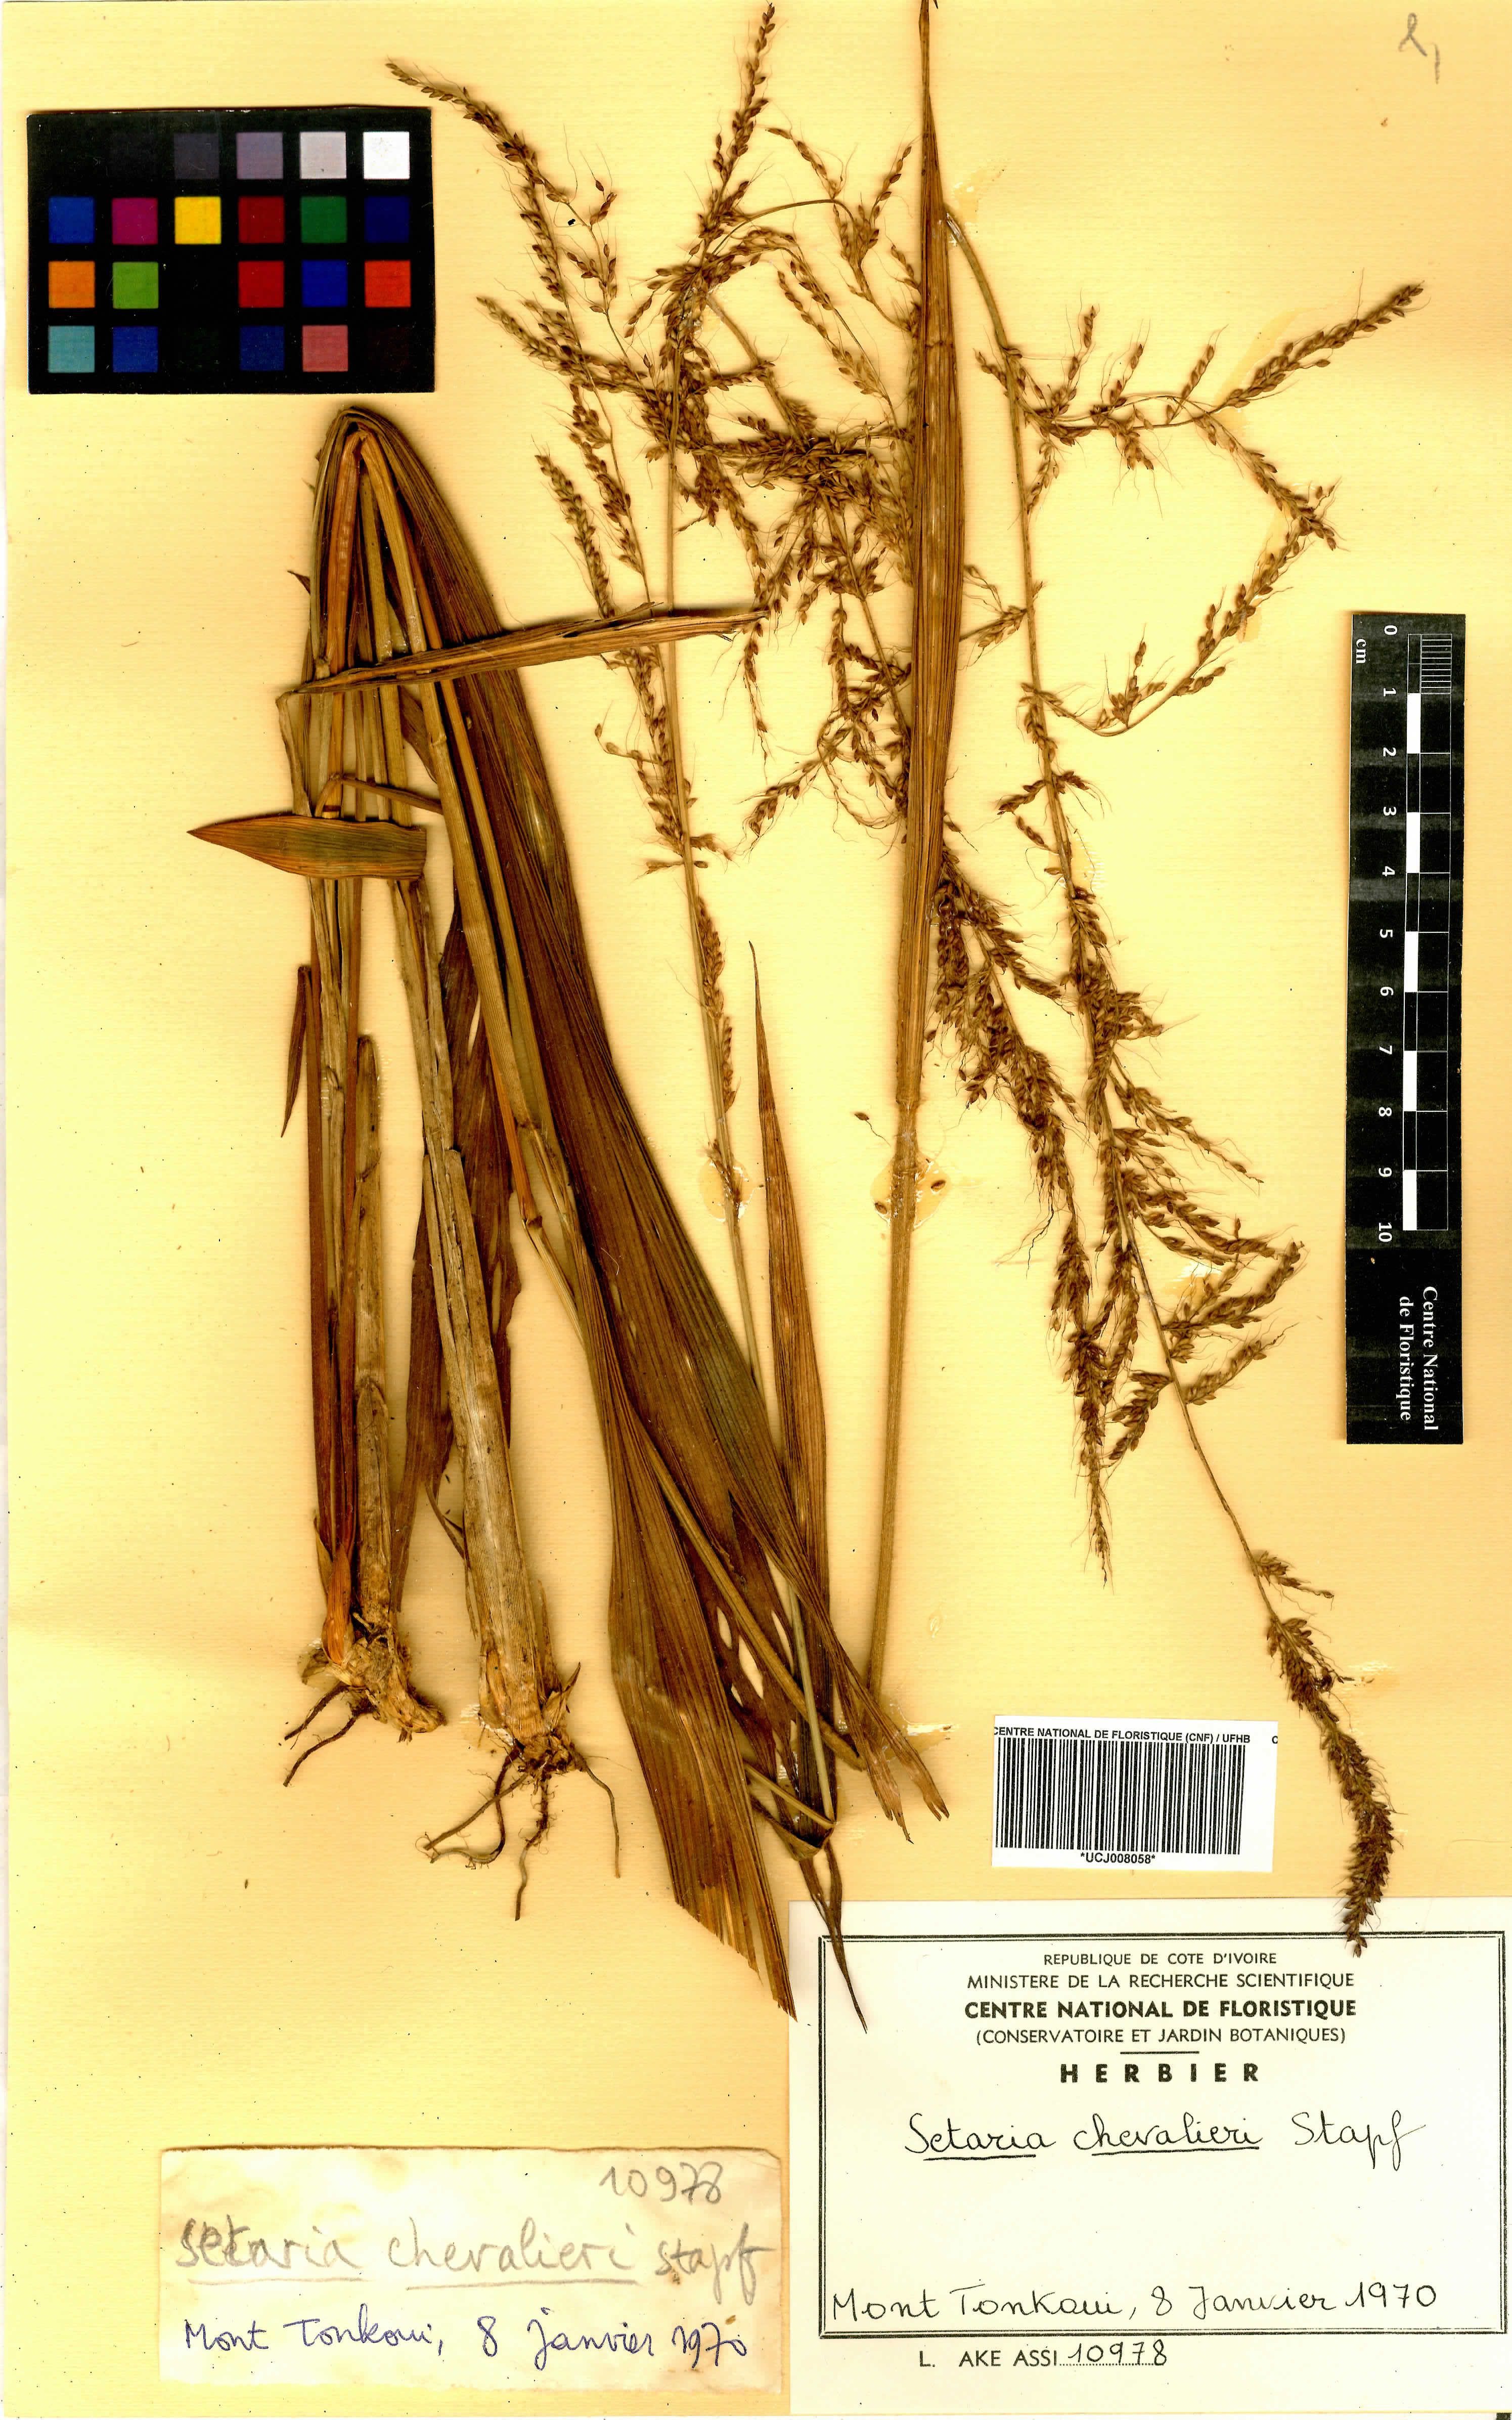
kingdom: Plantae
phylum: Tracheophyta
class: Liliopsida
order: Poales
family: Poaceae
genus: Setaria
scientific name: Setaria megaphylla
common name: Bigleaf bristlegrass
